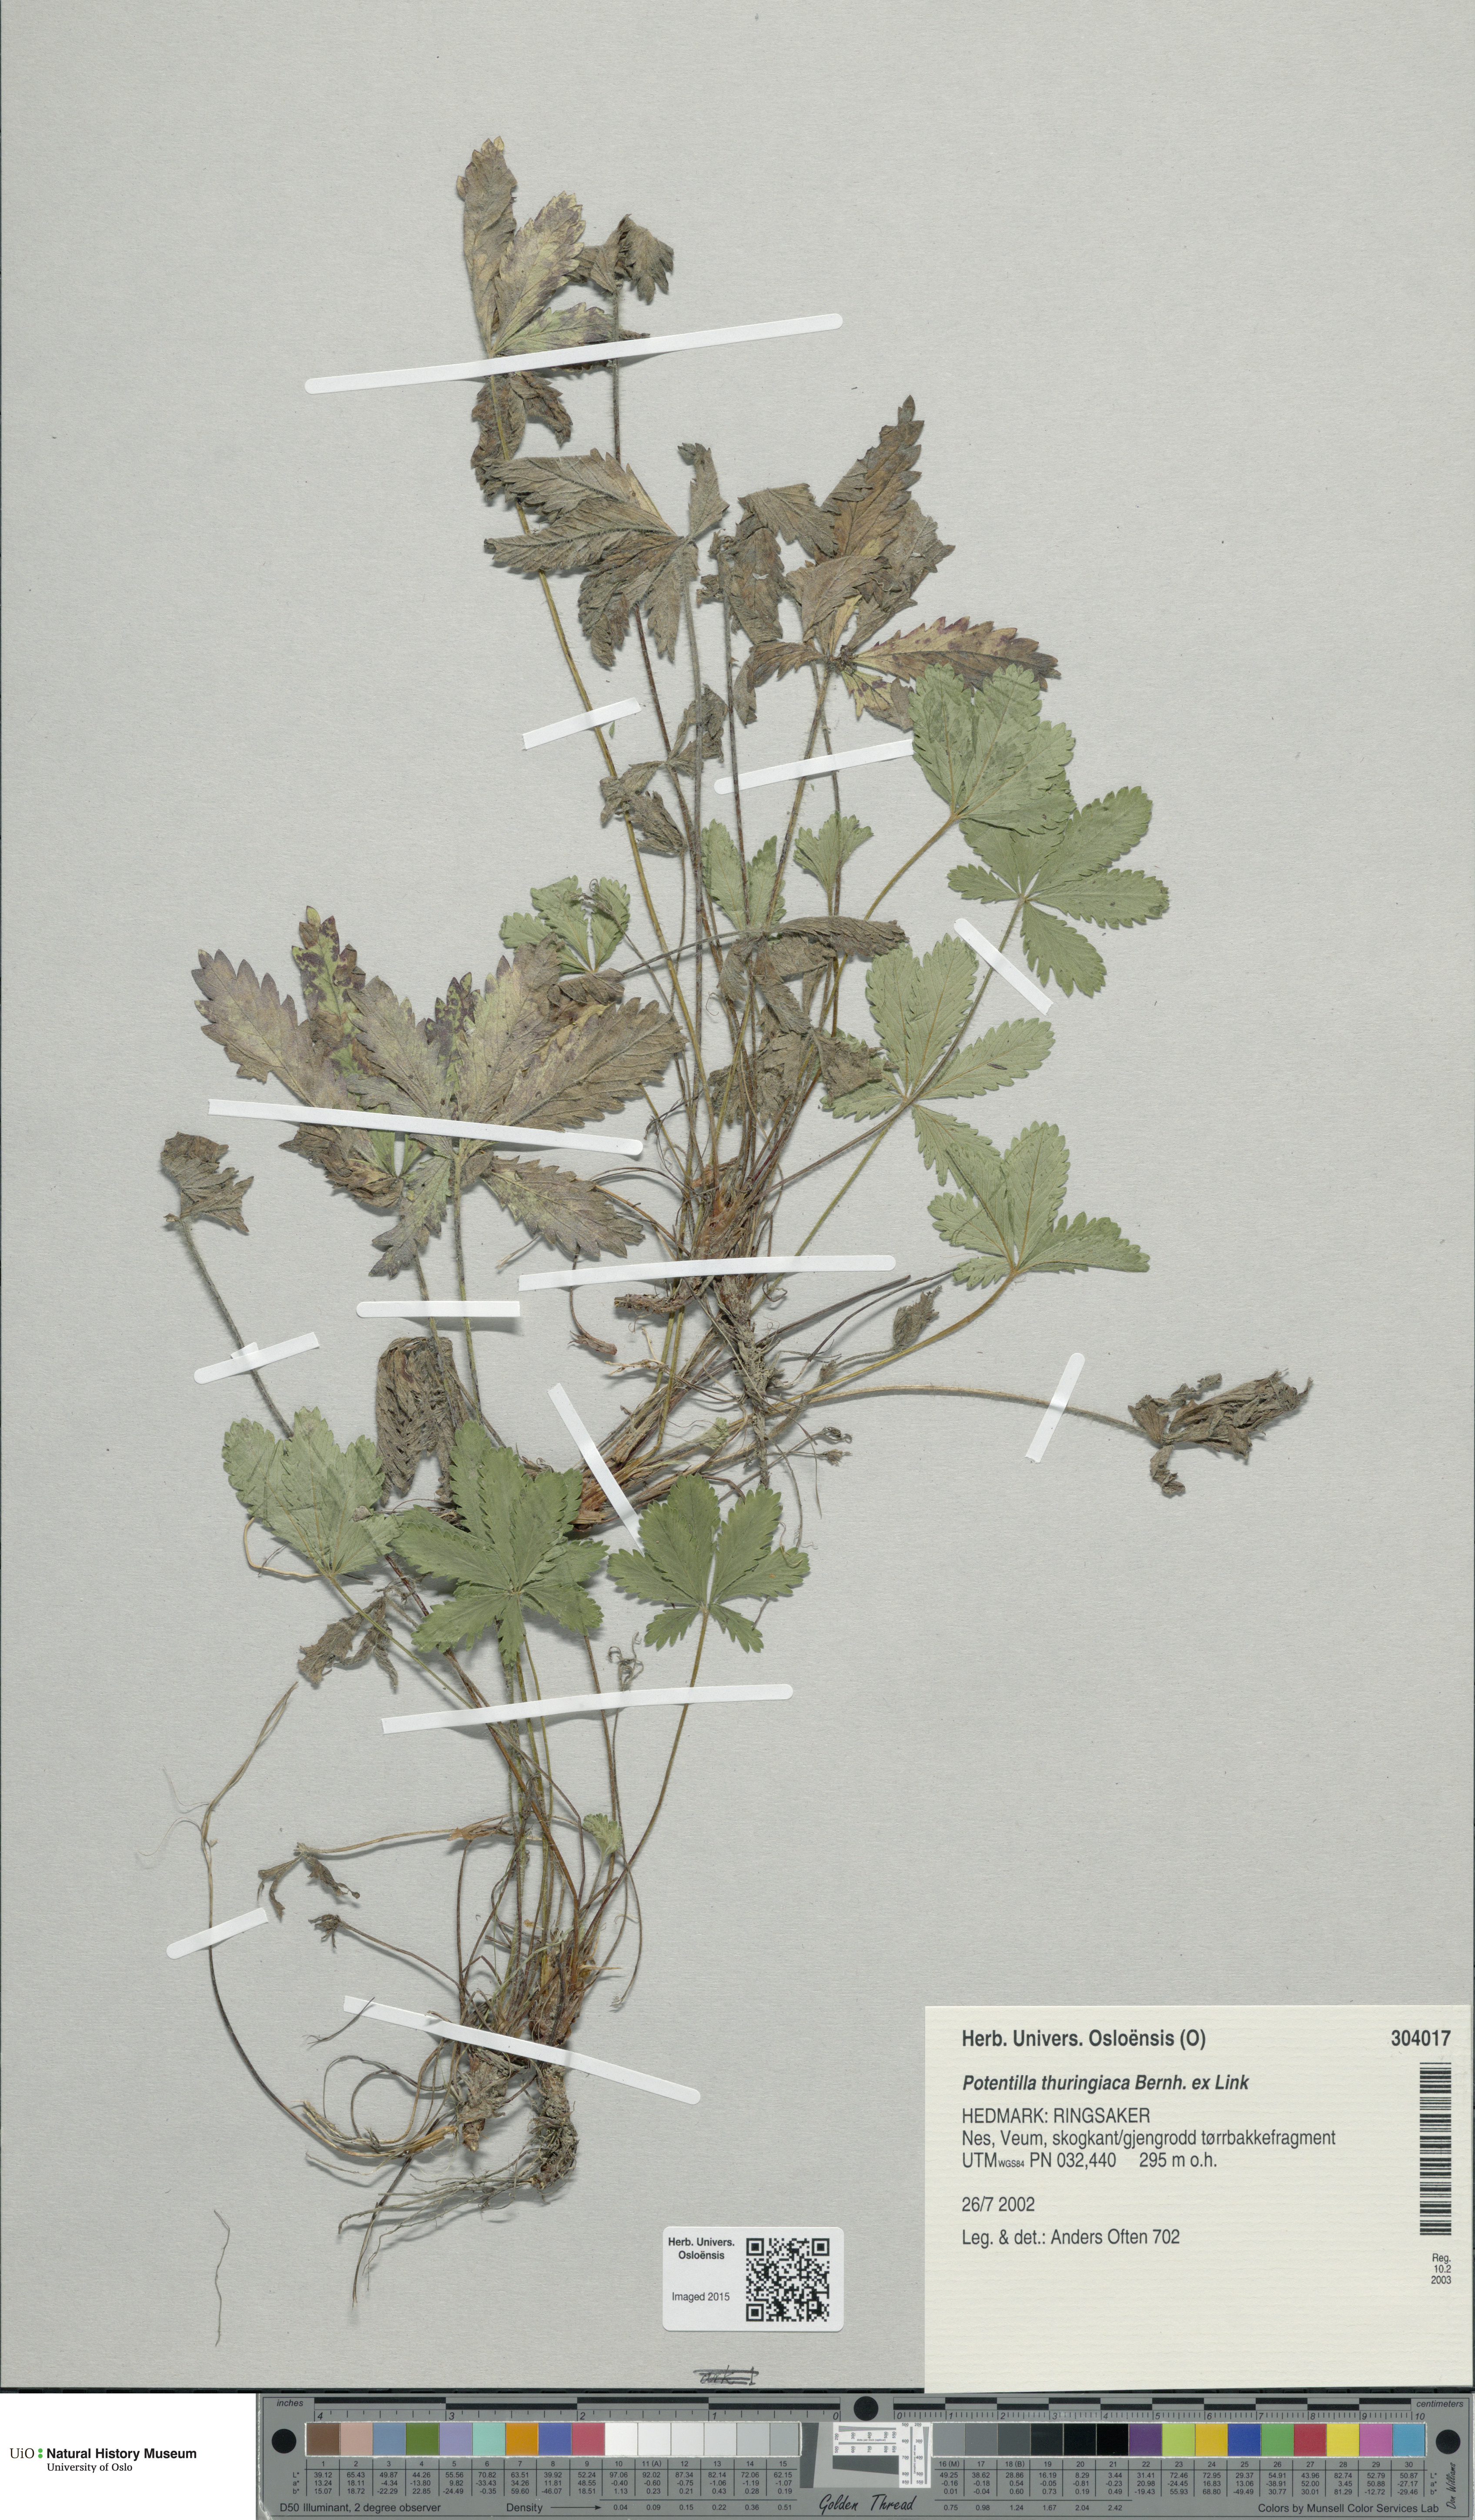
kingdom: Plantae
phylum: Tracheophyta
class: Magnoliopsida
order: Rosales
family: Rosaceae
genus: Potentilla
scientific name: Potentilla thuringiaca
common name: European cinquefoil
